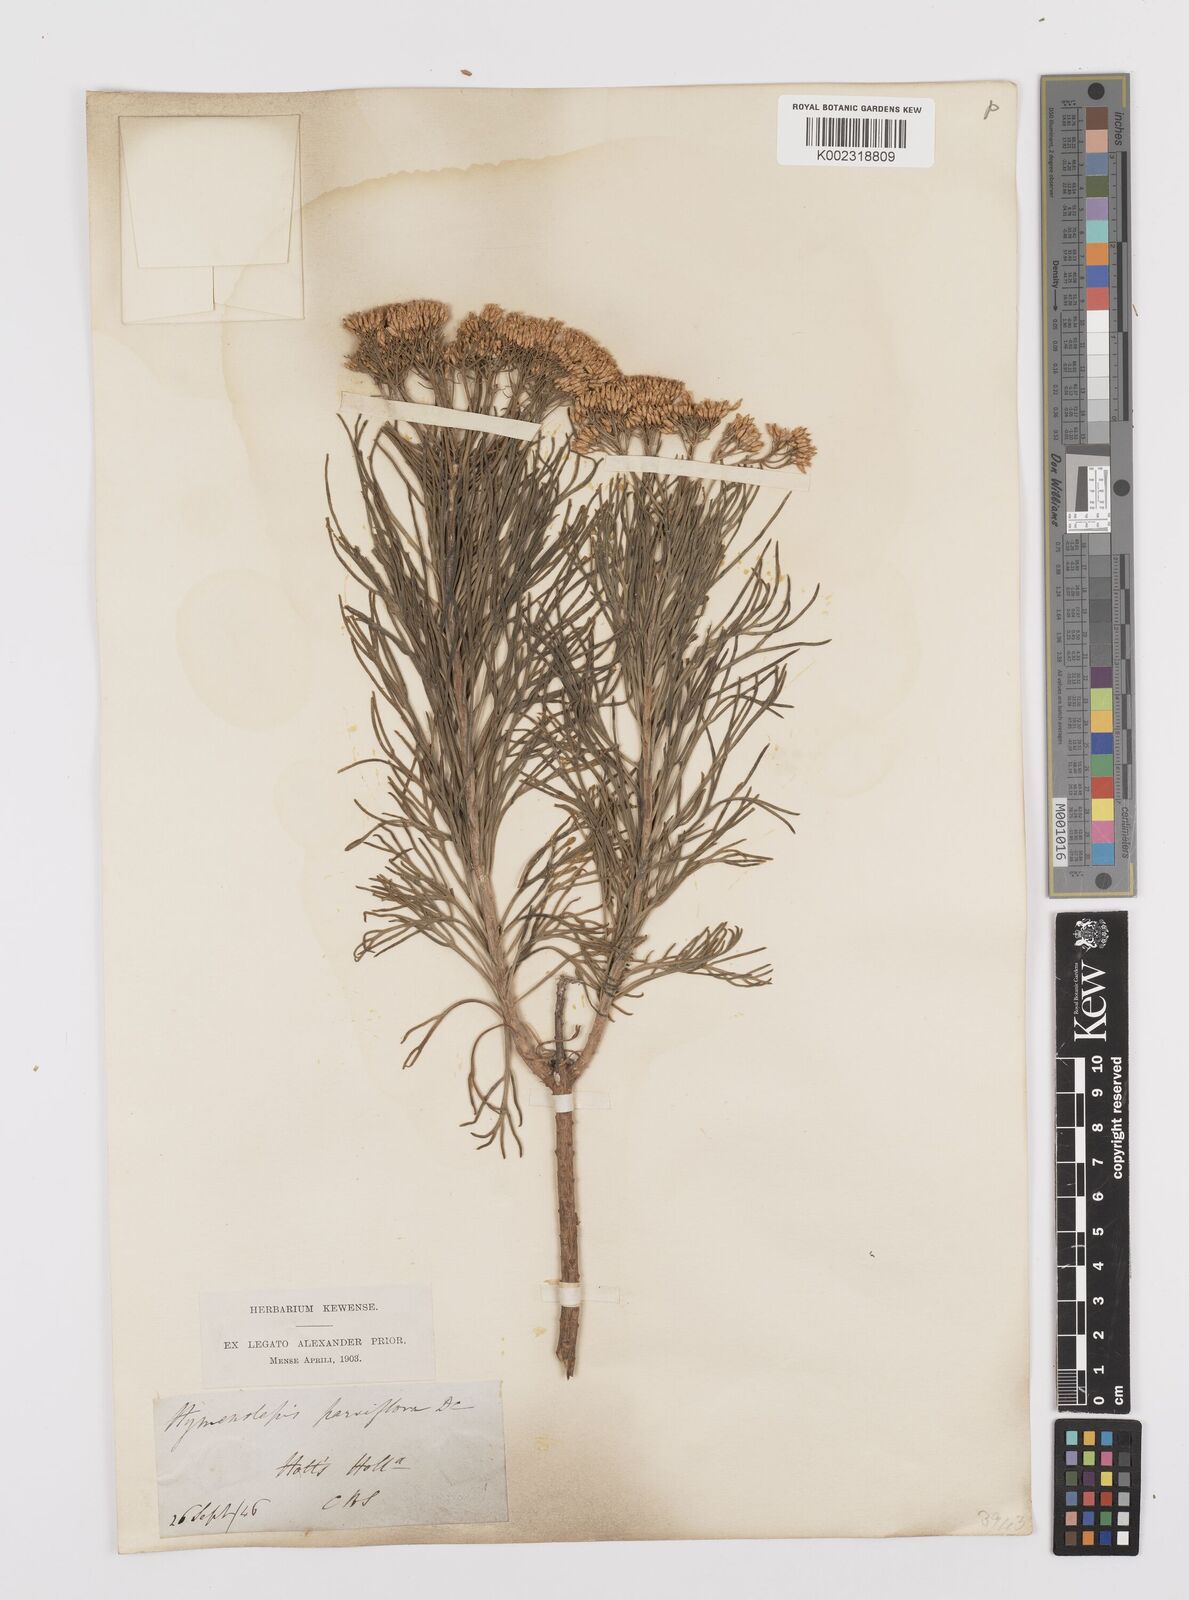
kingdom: Plantae
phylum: Tracheophyta
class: Magnoliopsida
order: Asterales
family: Asteraceae
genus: Hymenolepis
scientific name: Hymenolepis crithmifolia
